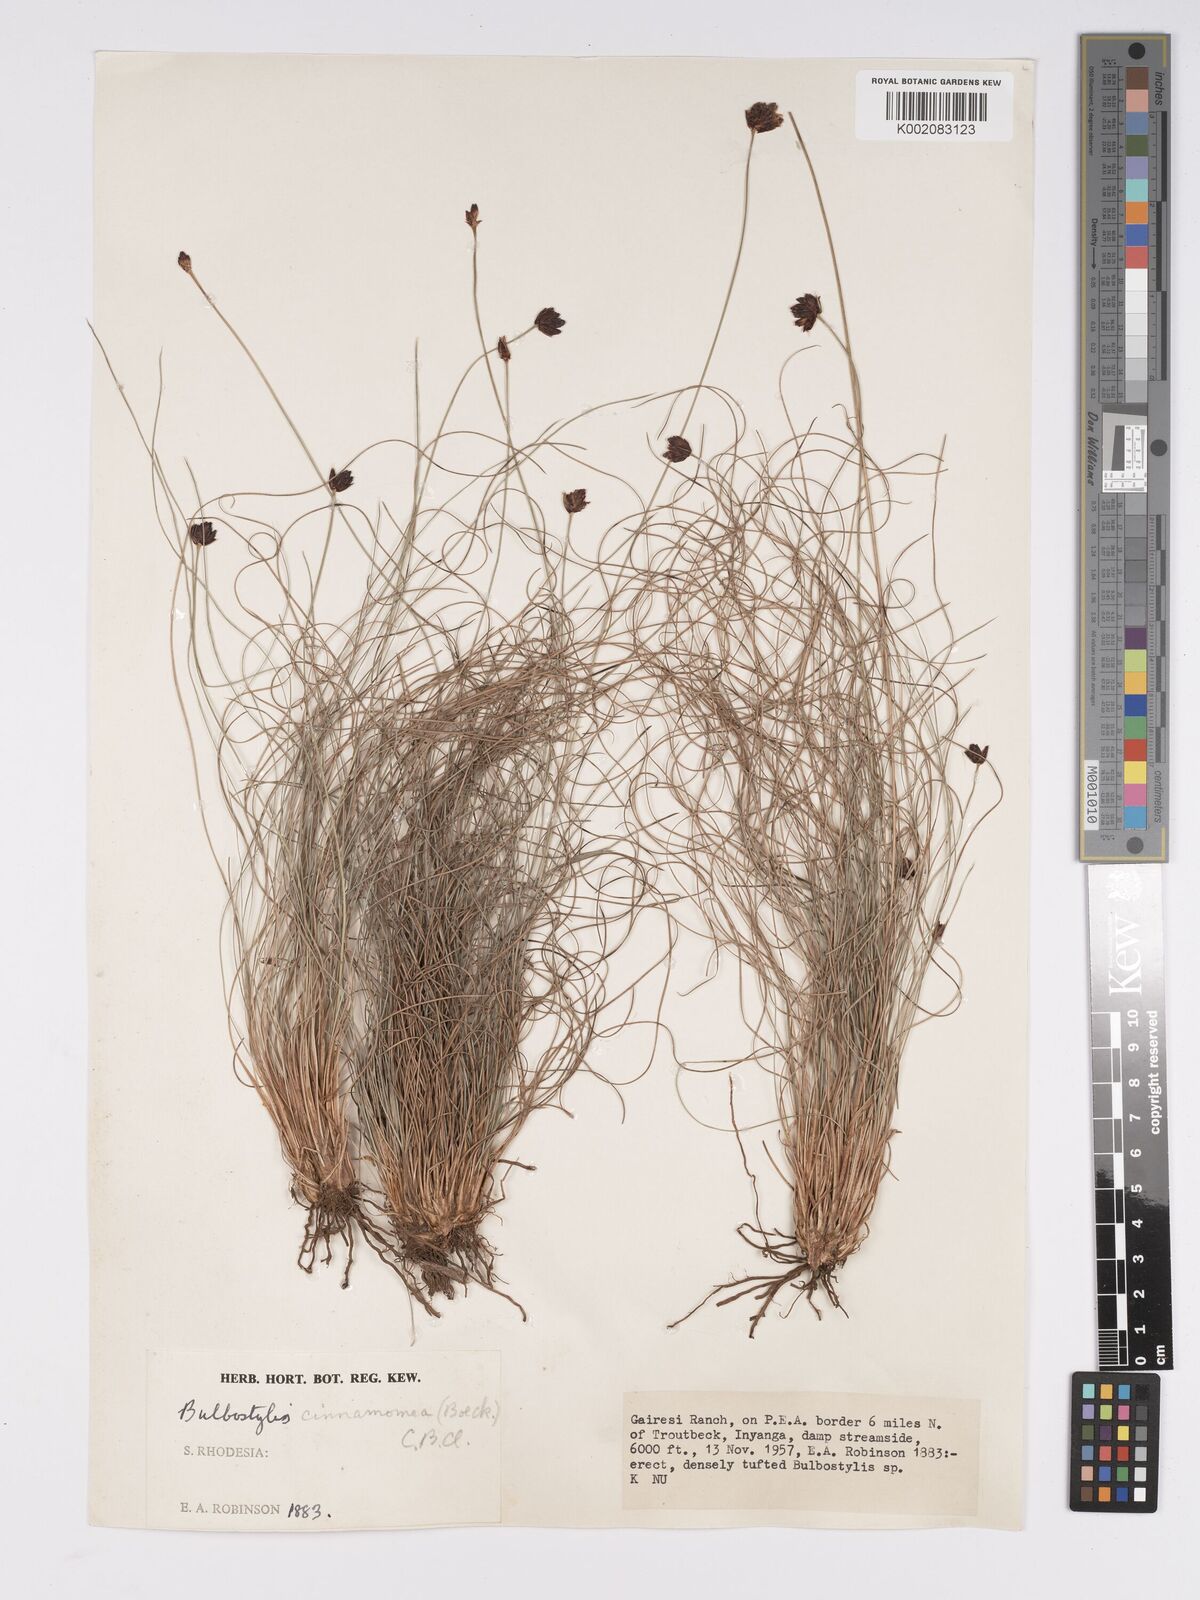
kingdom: Plantae
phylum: Tracheophyta
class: Liliopsida
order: Poales
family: Cyperaceae
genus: Bulbostylis
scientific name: Bulbostylis schoenoides
